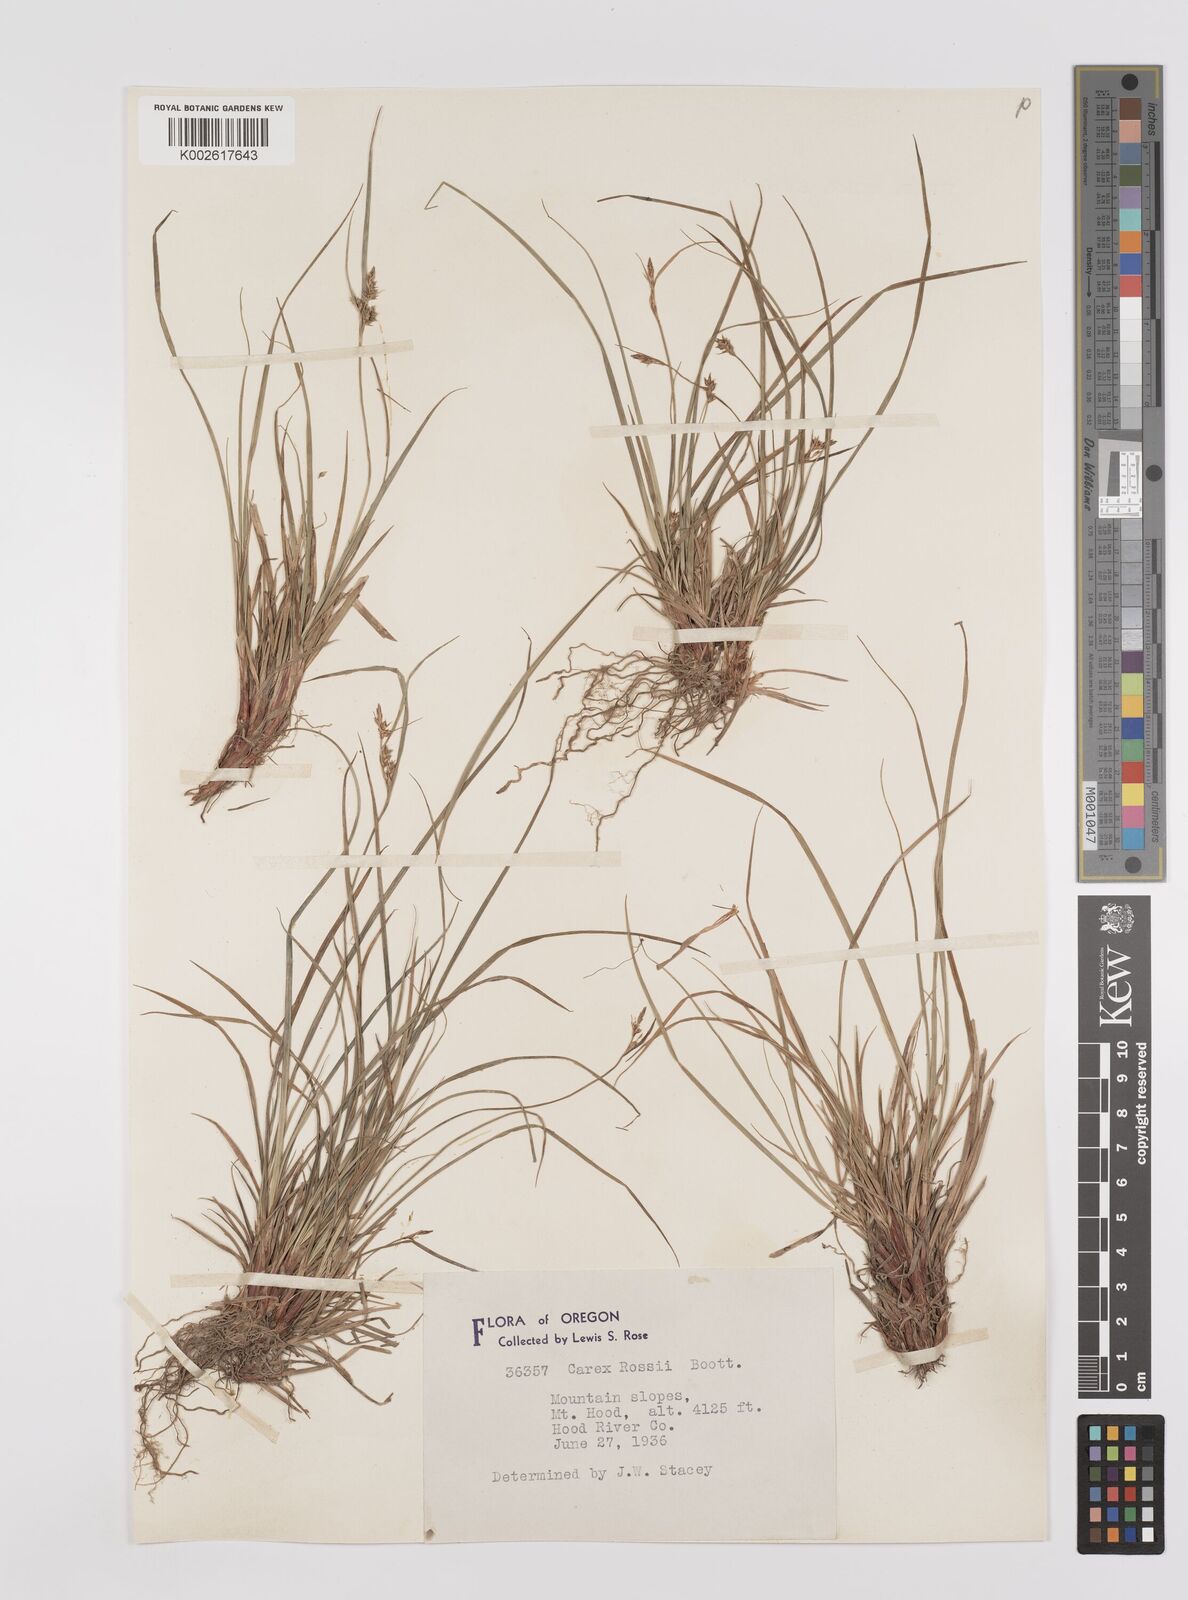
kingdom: Plantae
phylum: Tracheophyta
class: Liliopsida
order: Poales
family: Cyperaceae
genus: Carex
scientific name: Carex rossii
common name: Ross' sedge
